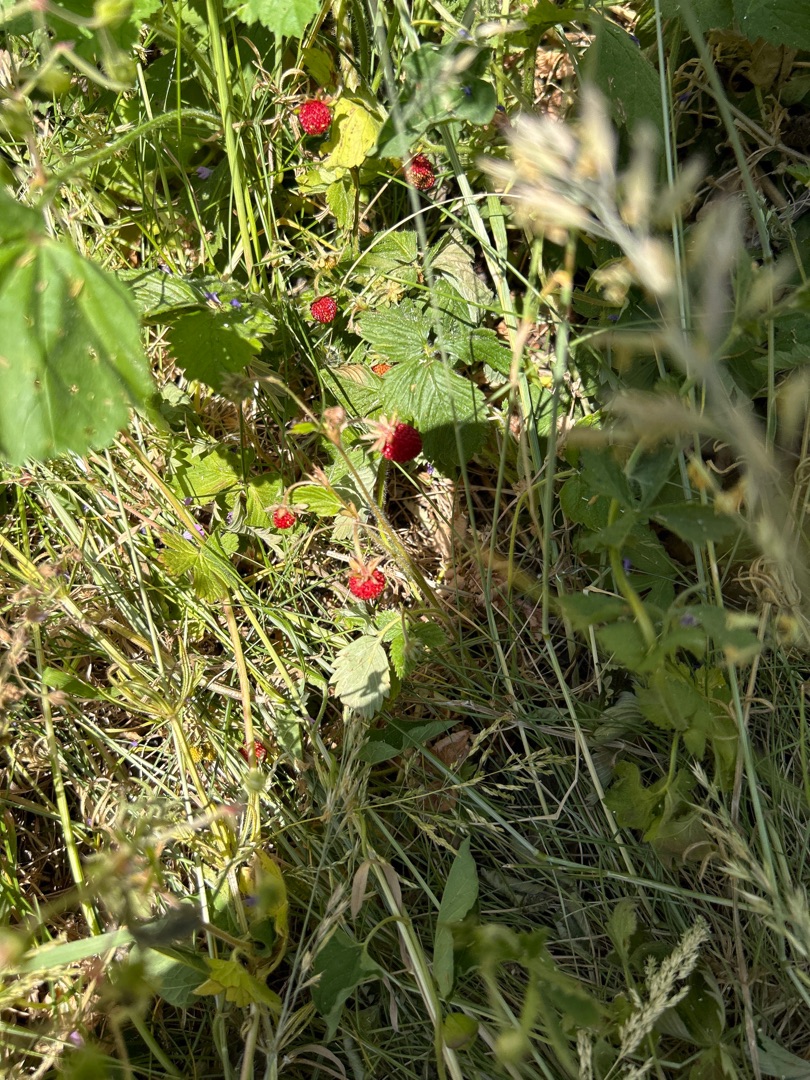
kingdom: Plantae
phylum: Tracheophyta
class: Magnoliopsida
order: Rosales
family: Rosaceae
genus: Fragaria
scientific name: Fragaria vesca
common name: Skov-jordbær
